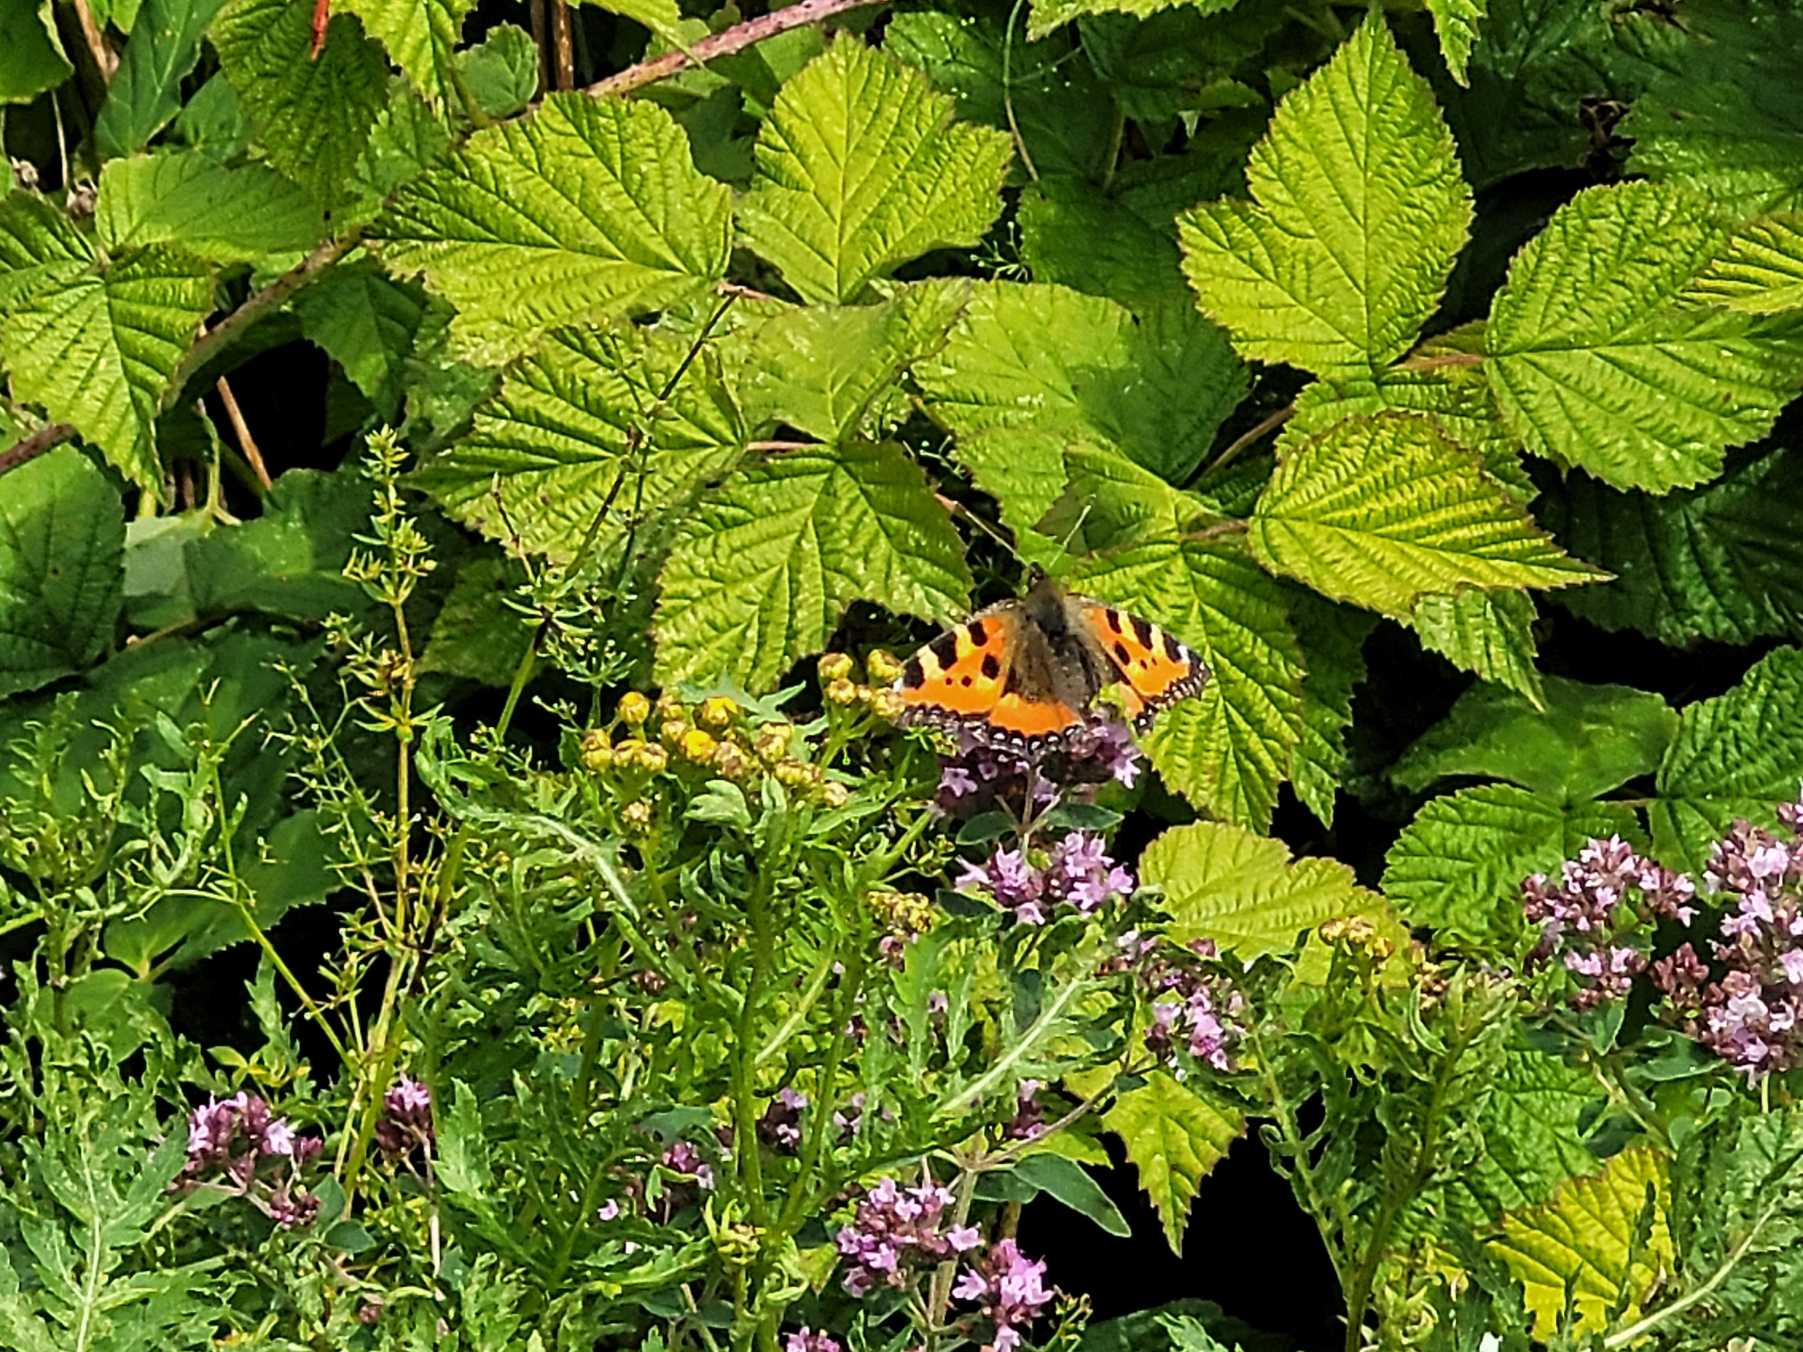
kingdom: Animalia
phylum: Arthropoda
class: Insecta
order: Lepidoptera
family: Nymphalidae
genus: Aglais
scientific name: Aglais urticae
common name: Nældens takvinge
